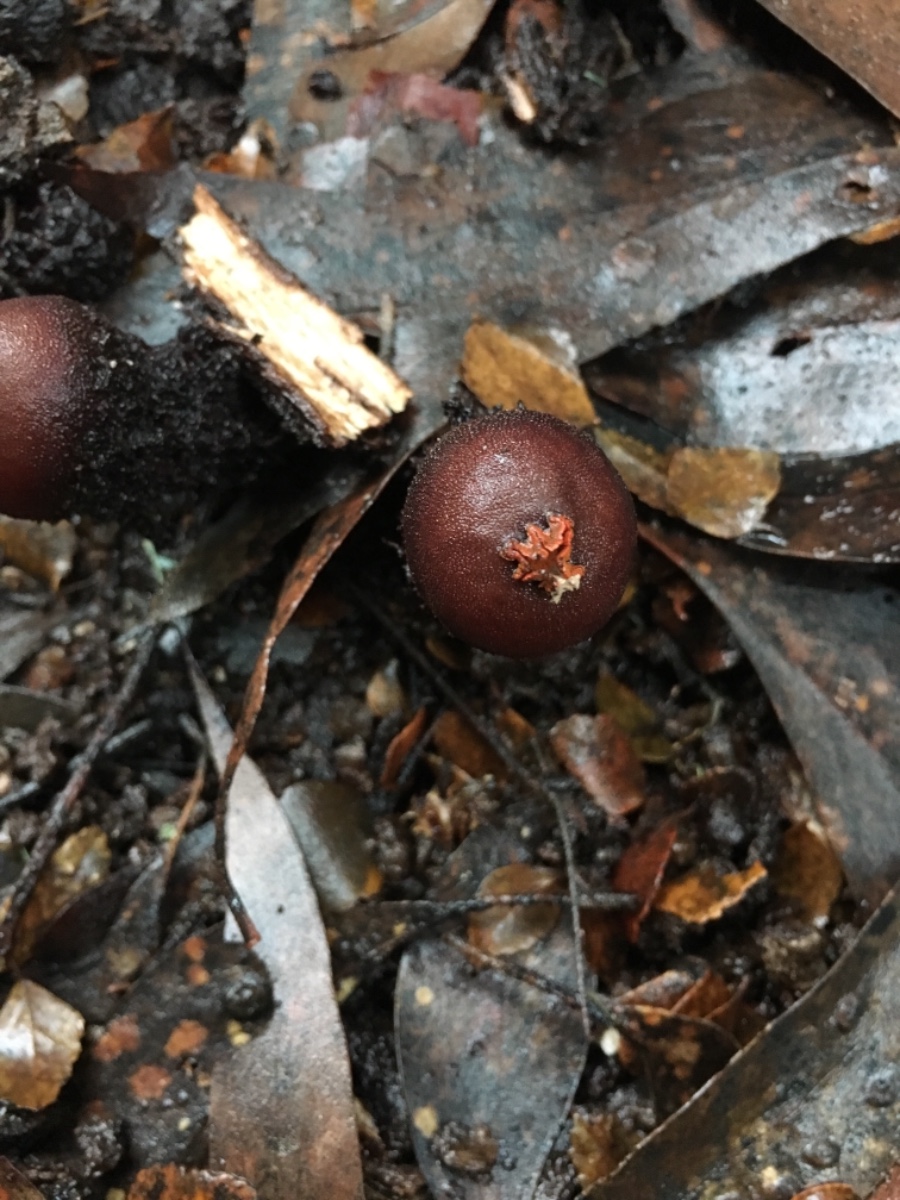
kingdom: Fungi
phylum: Basidiomycota
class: Agaricomycetes
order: Boletales
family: Calostomataceae
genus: Calostoma
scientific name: Calostoma fuscum
